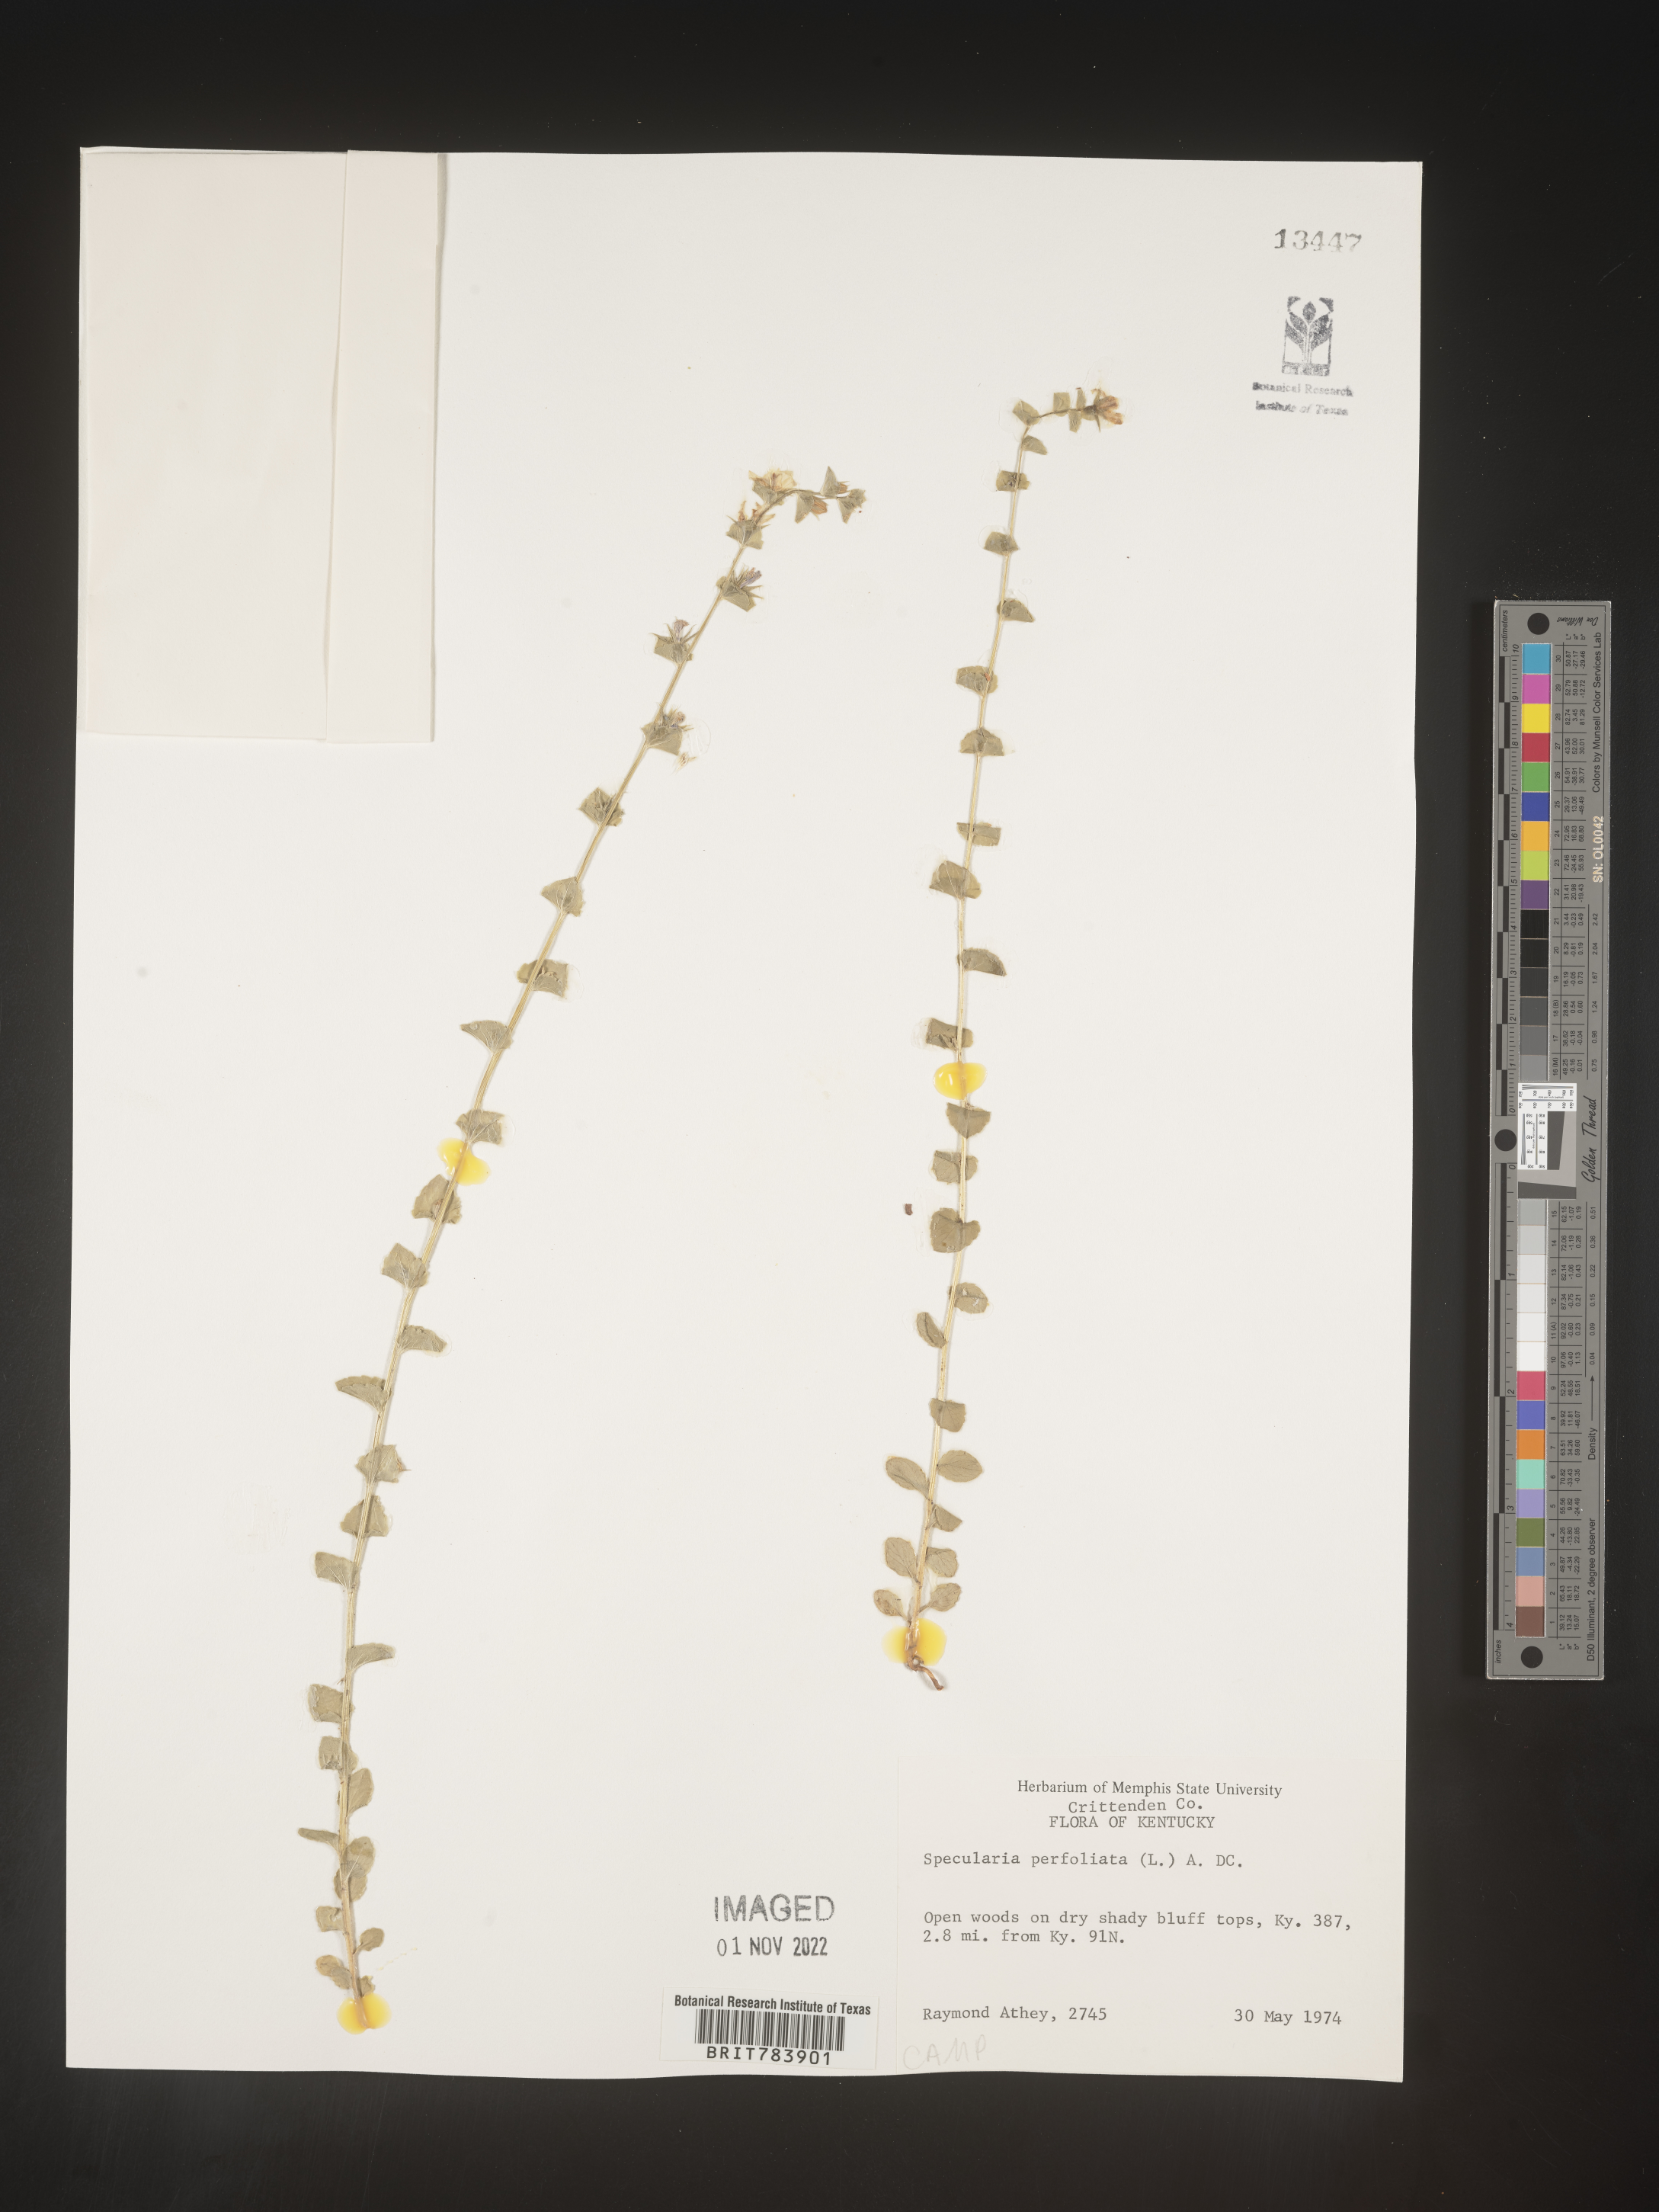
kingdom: Plantae
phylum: Tracheophyta
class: Magnoliopsida
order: Asterales
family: Campanulaceae
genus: Triodanis
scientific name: Triodanis perfoliata
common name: Clasping venus' looking-glass
